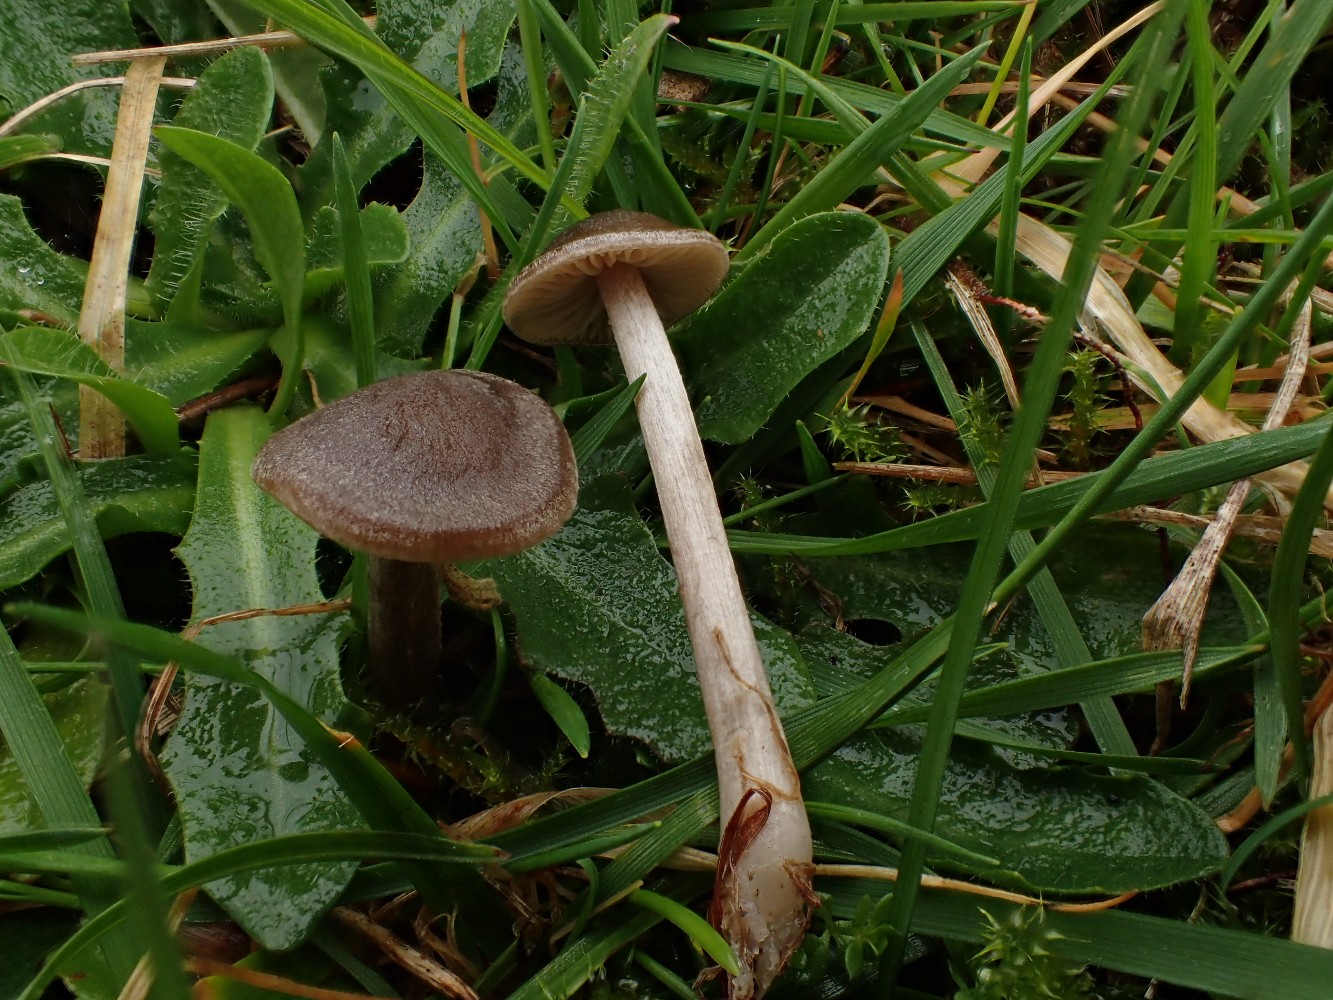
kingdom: Fungi
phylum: Basidiomycota
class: Agaricomycetes
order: Agaricales
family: Entolomataceae
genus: Entoloma
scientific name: Entoloma
